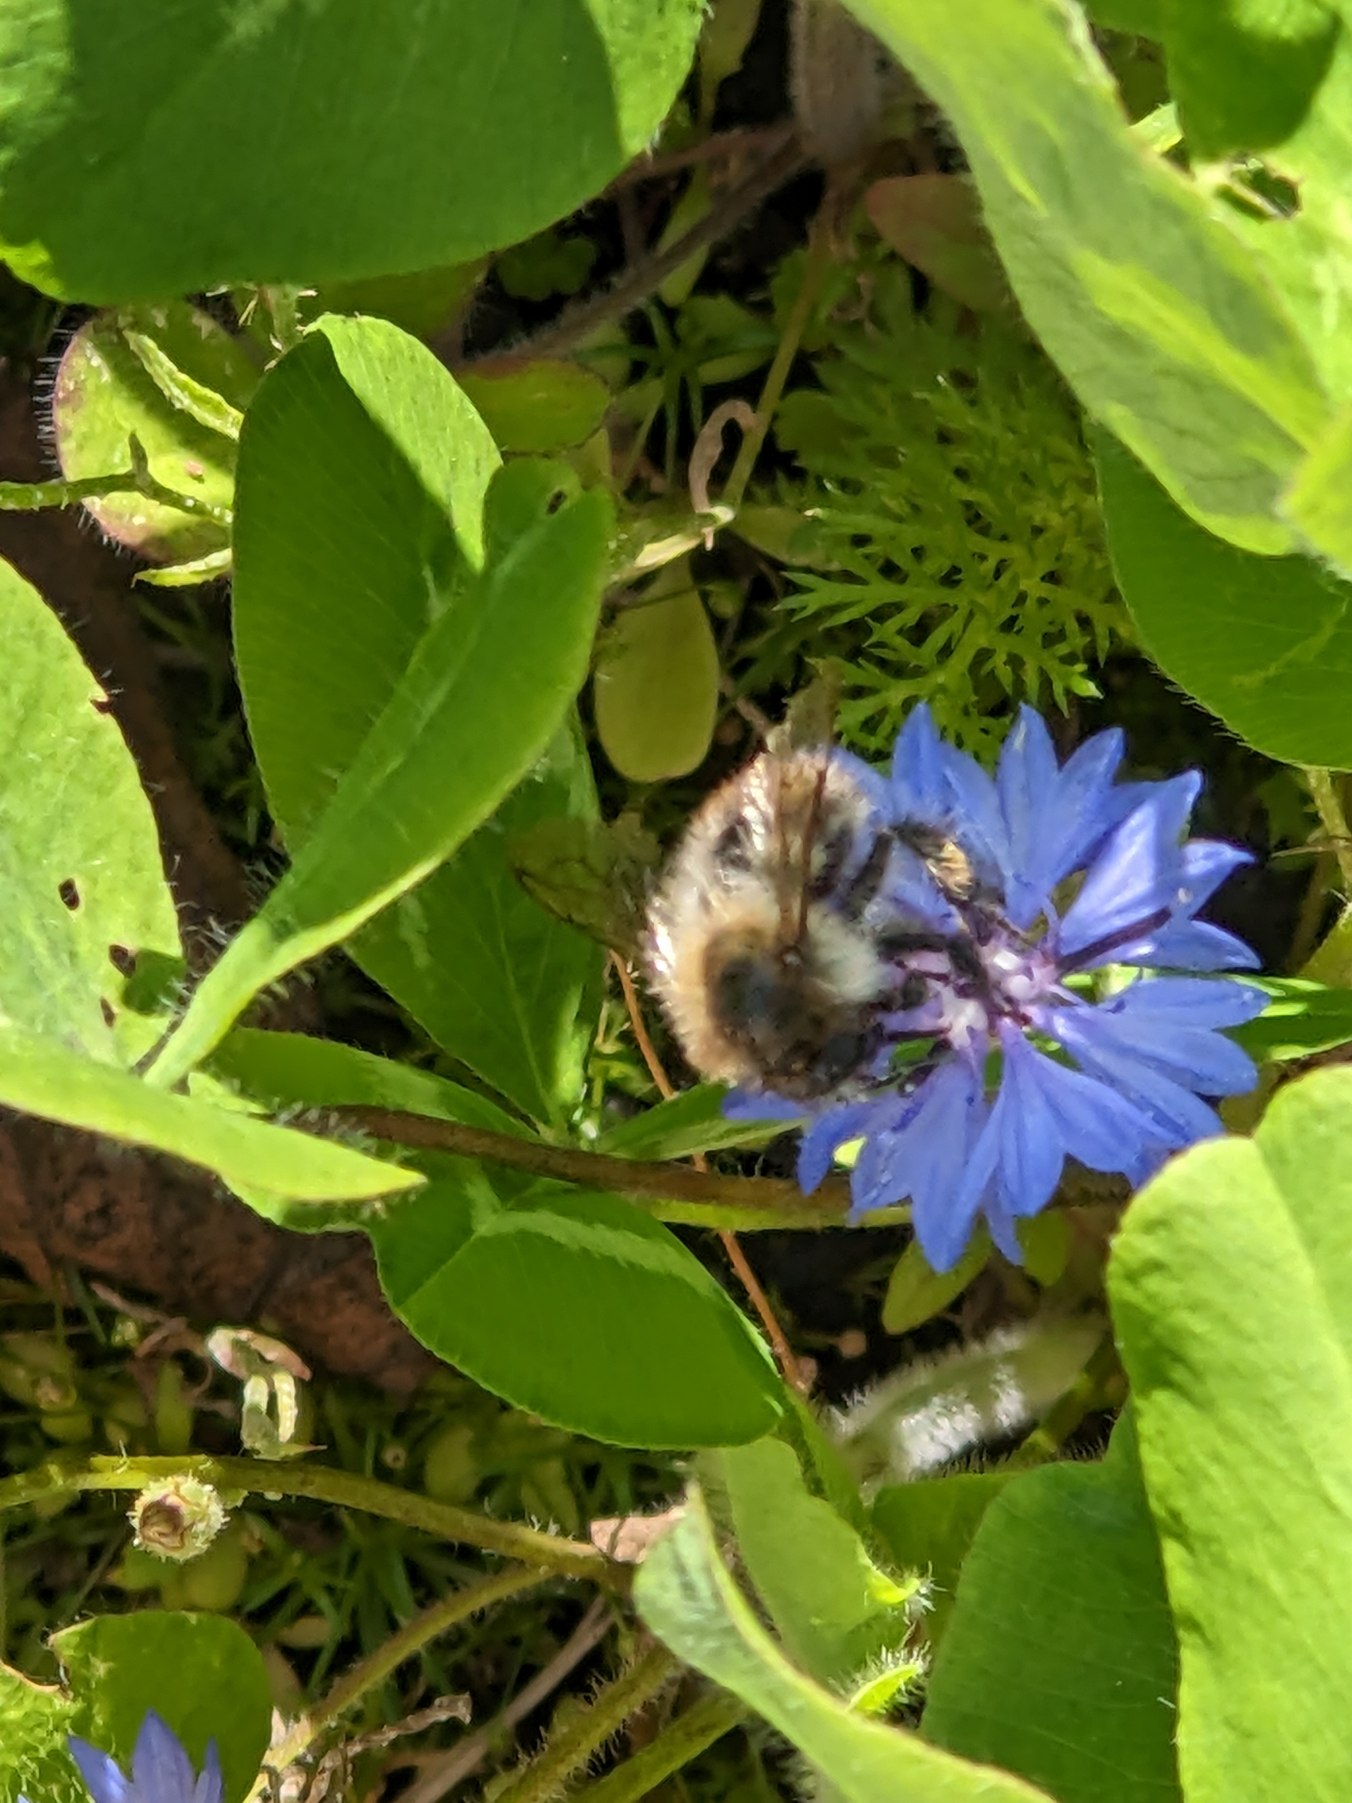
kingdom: Plantae
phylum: Tracheophyta
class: Magnoliopsida
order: Asterales
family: Asteraceae
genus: Centaurea
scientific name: Centaurea cyanus
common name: Kornblomst
